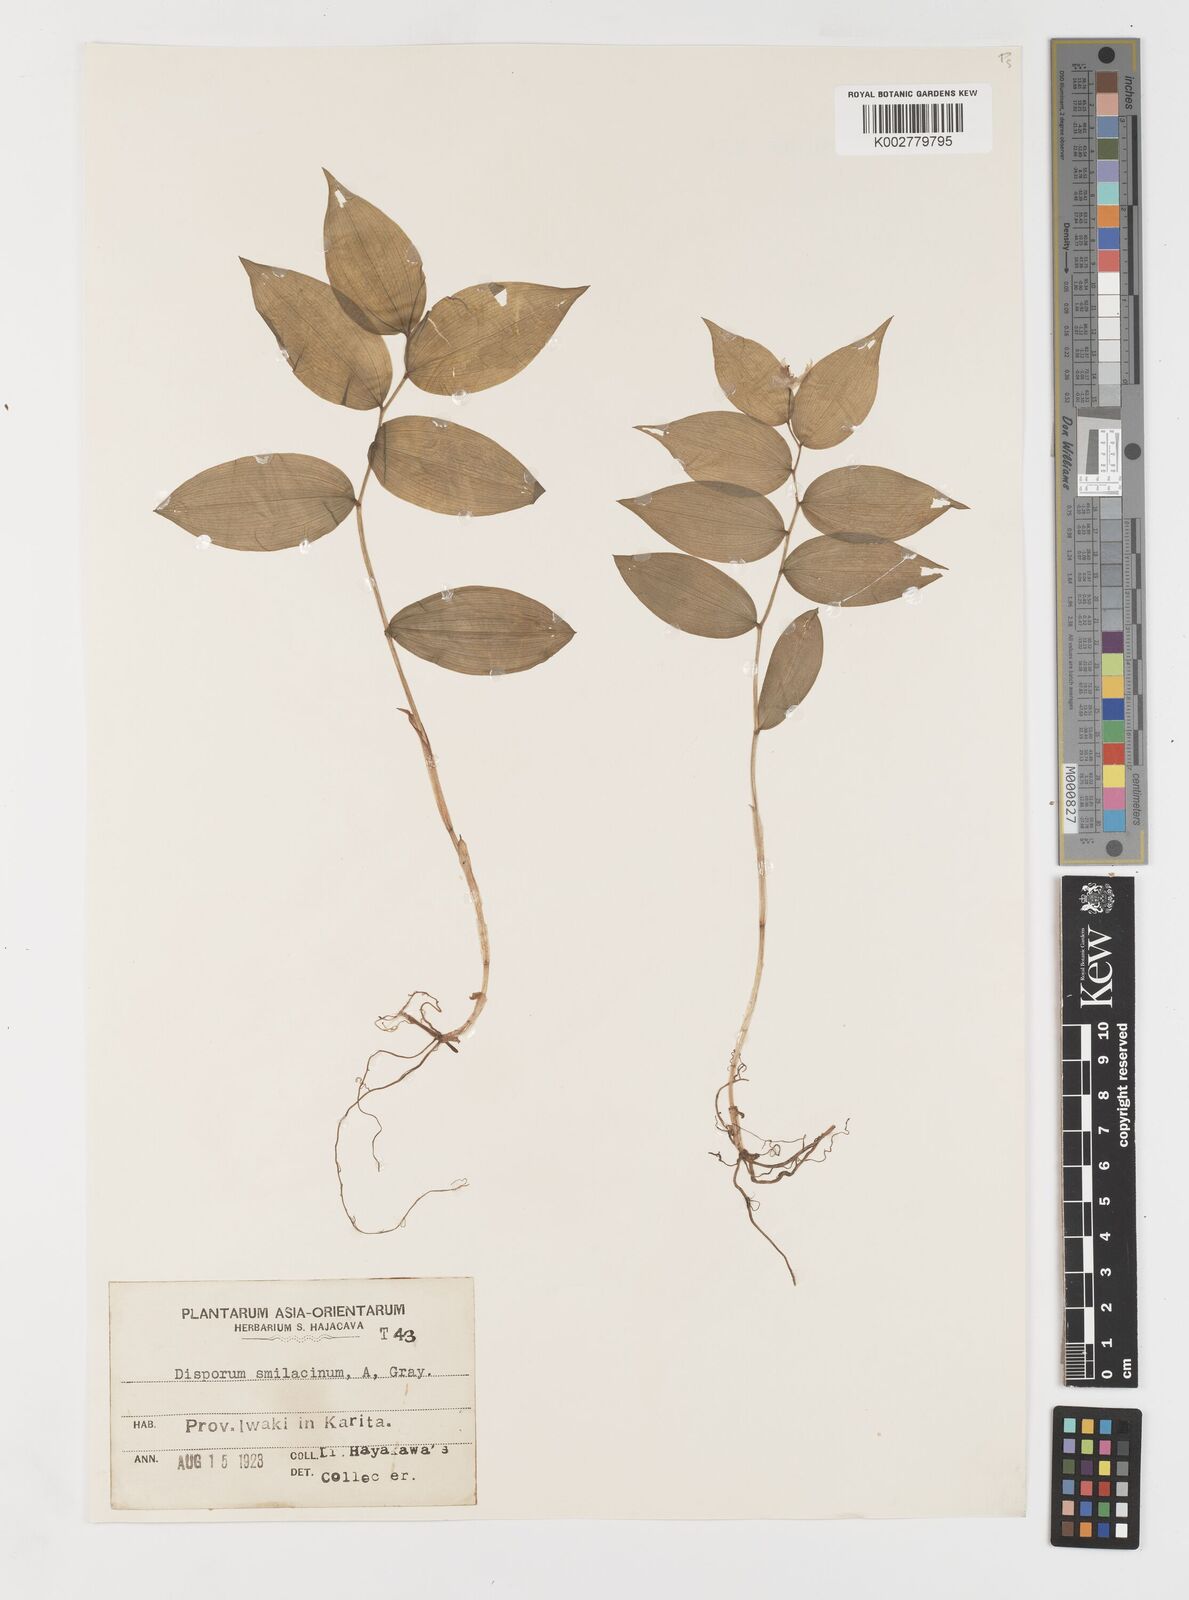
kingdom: Plantae
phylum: Tracheophyta
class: Liliopsida
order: Liliales
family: Colchicaceae
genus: Disporum
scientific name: Disporum smilacinum
